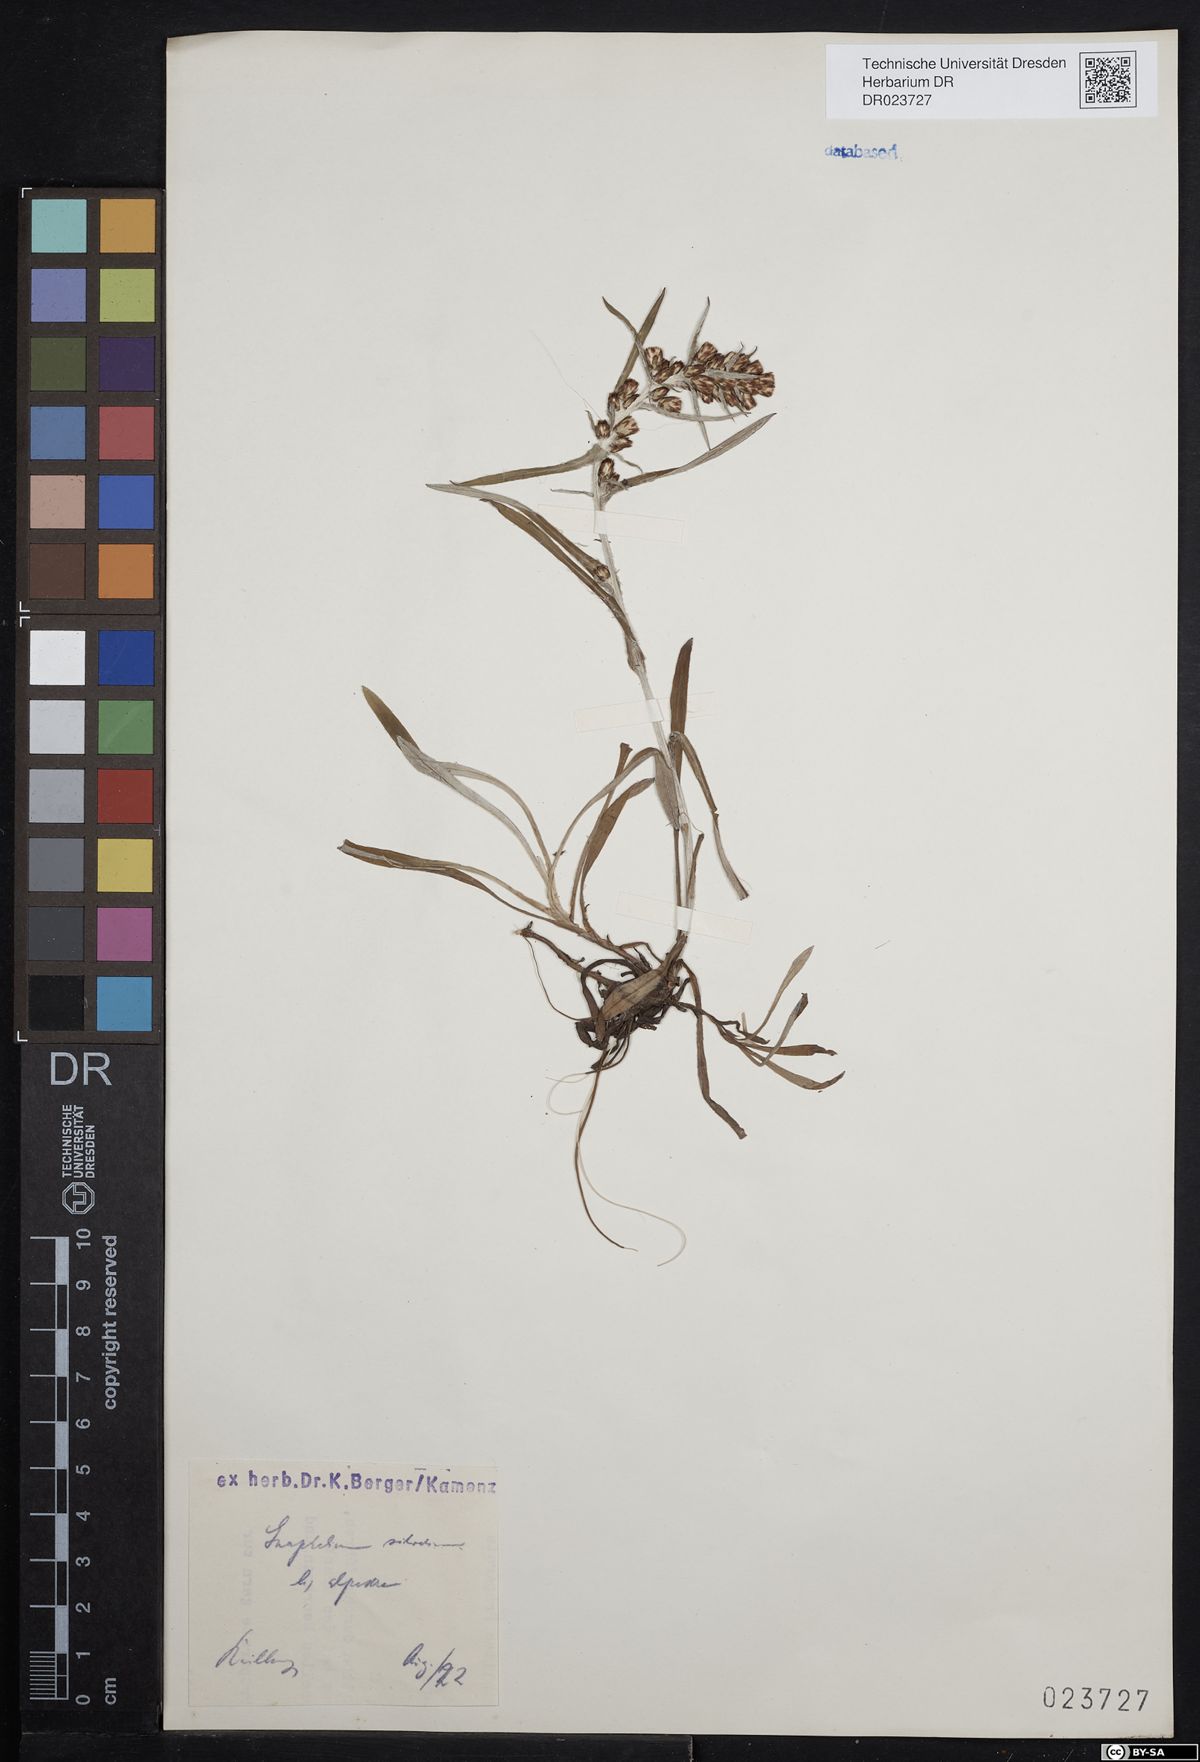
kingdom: Plantae
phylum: Tracheophyta
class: Magnoliopsida
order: Asterales
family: Asteraceae
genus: Omalotheca
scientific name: Omalotheca sylvatica
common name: Heath cudweed
